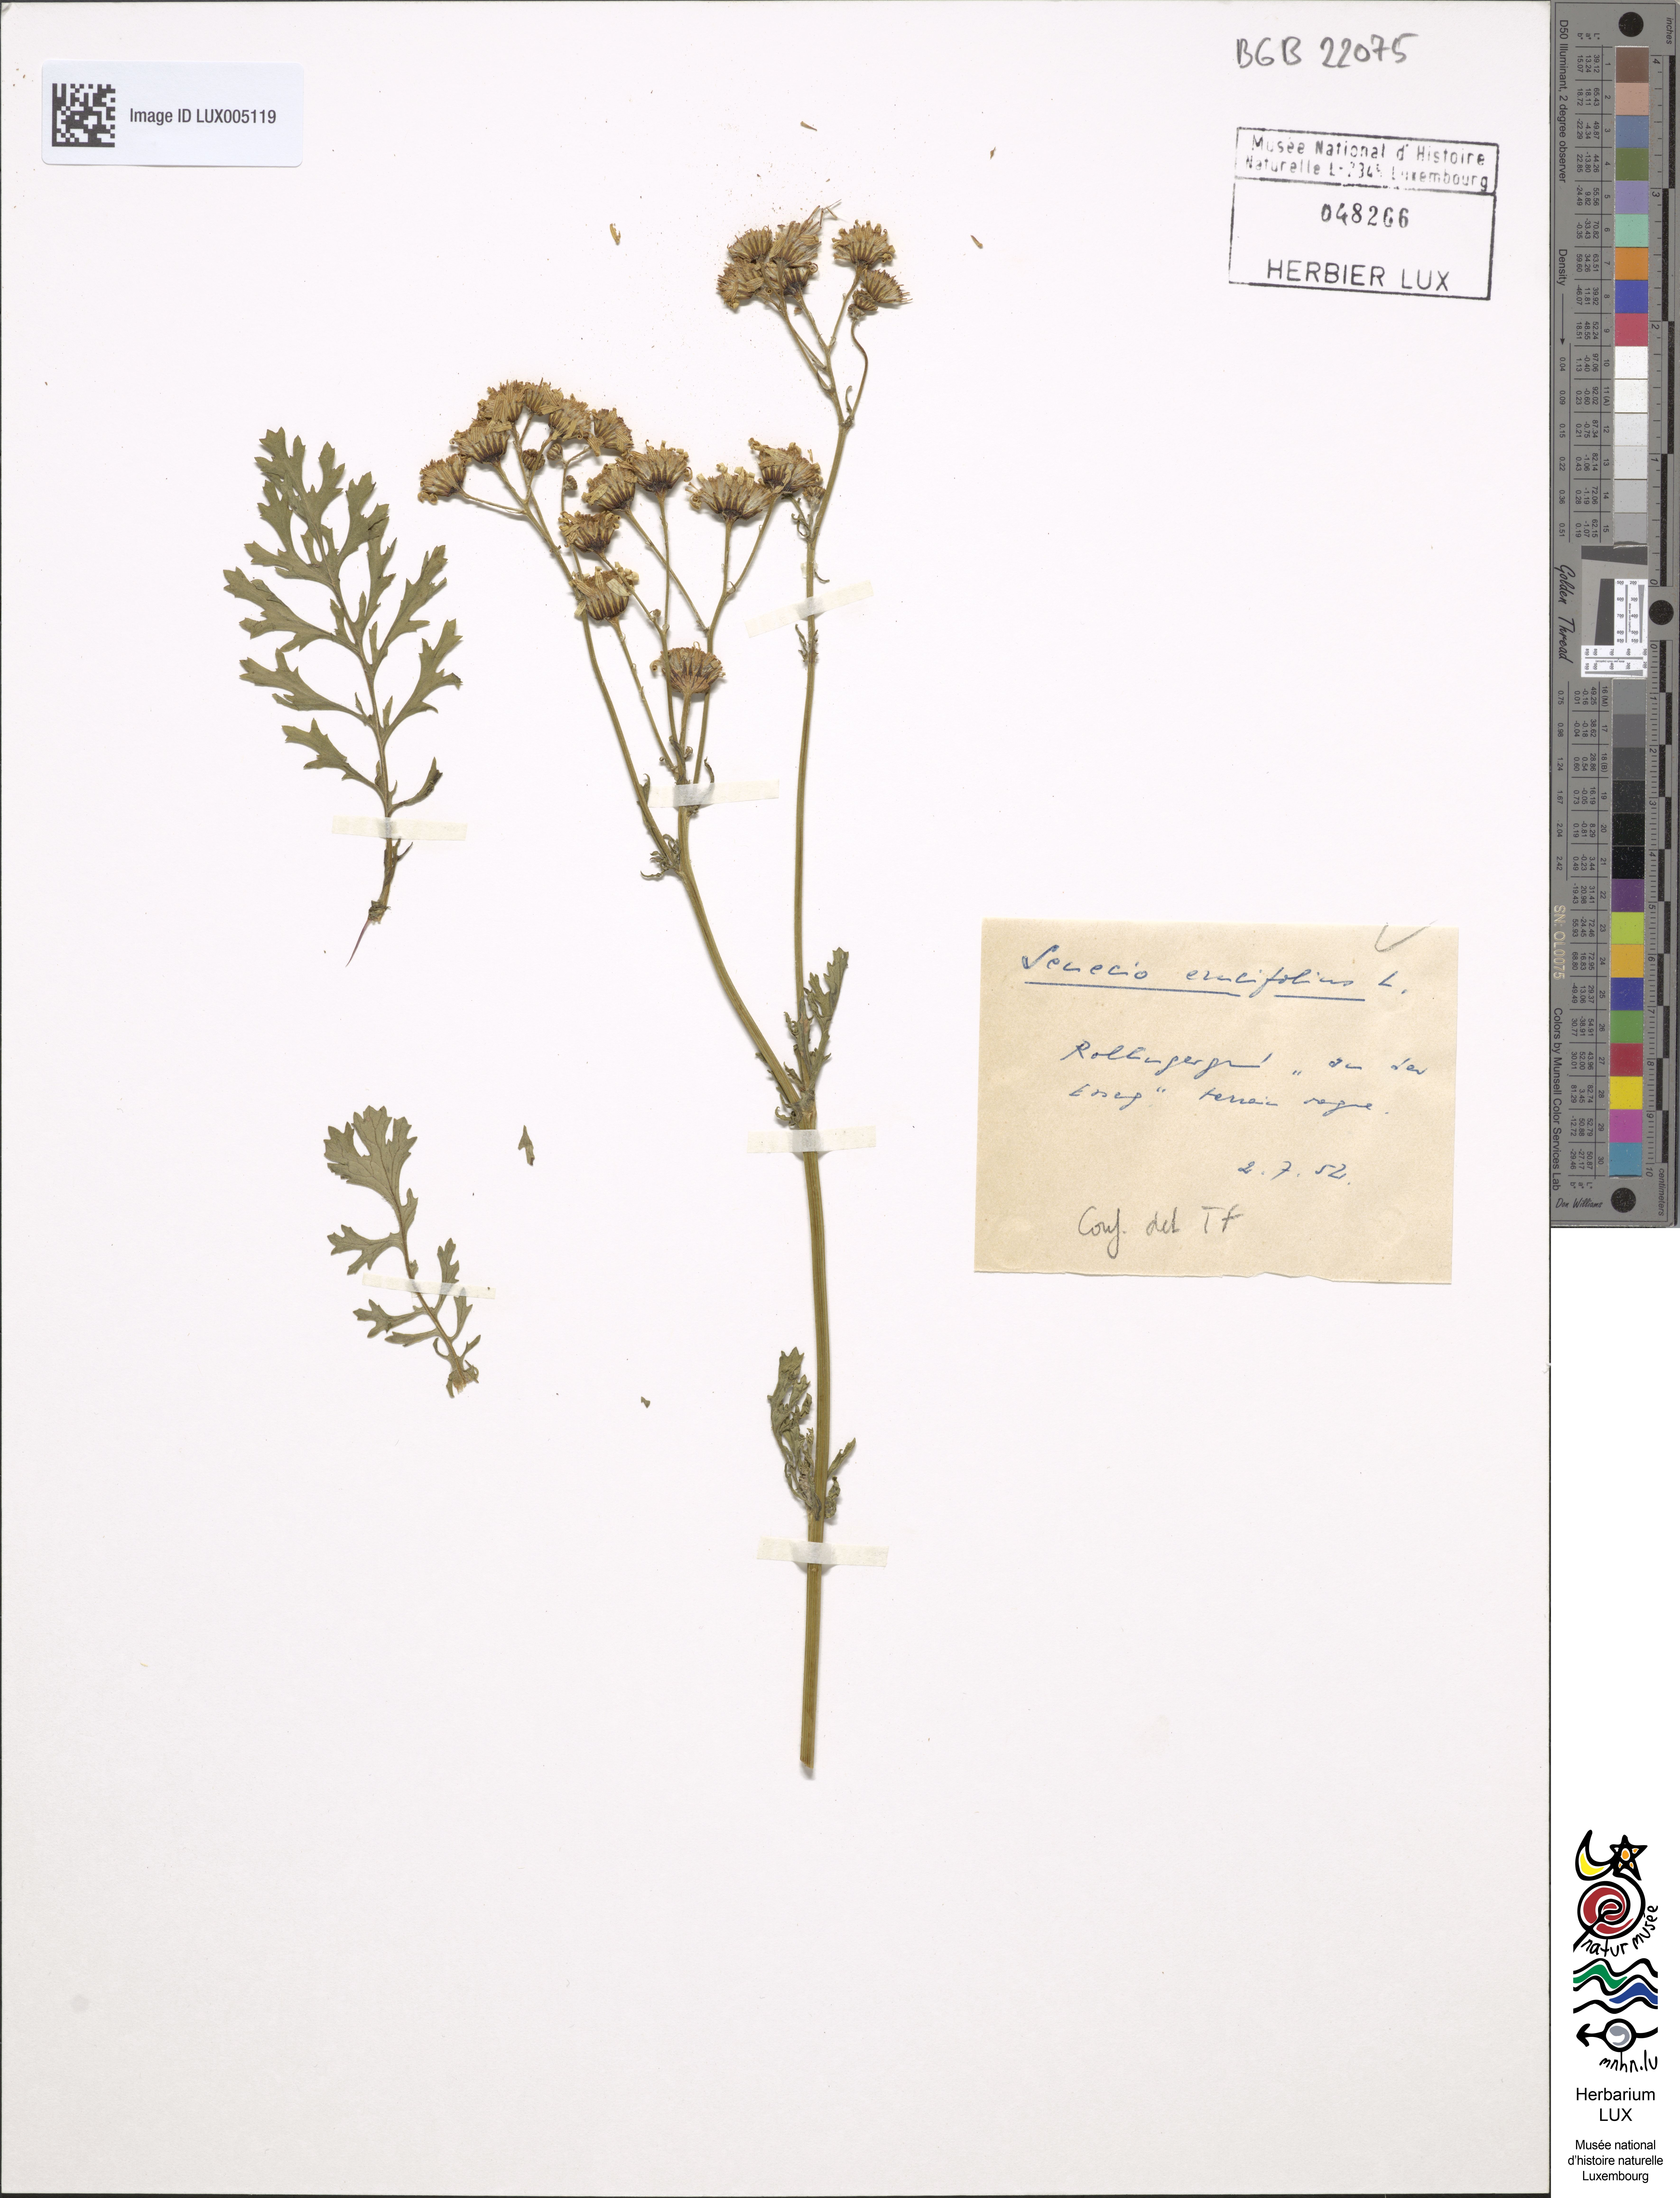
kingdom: Plantae
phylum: Tracheophyta
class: Magnoliopsida
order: Asterales
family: Asteraceae
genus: Jacobaea
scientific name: Jacobaea erucifolia
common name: Hoary ragwort
